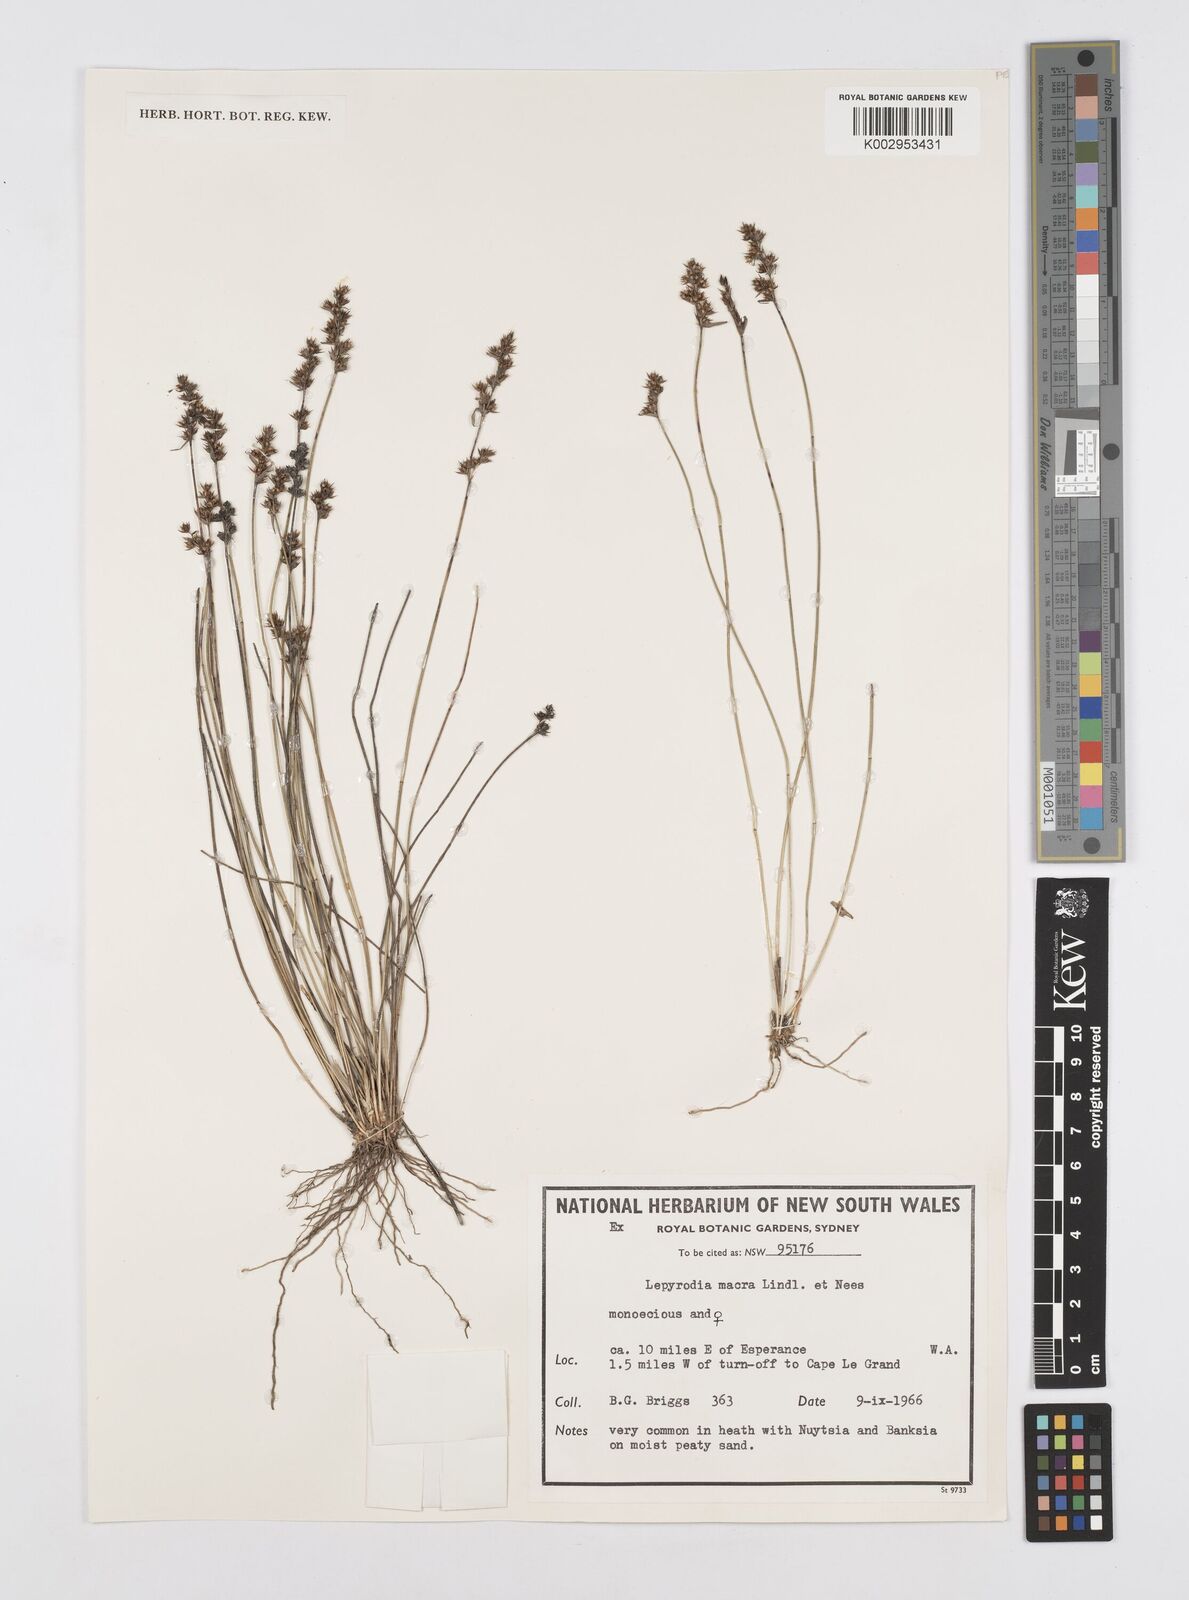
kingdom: Plantae
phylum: Tracheophyta
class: Liliopsida
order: Poales
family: Restionaceae
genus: Lepyrodia
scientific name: Lepyrodia macra
